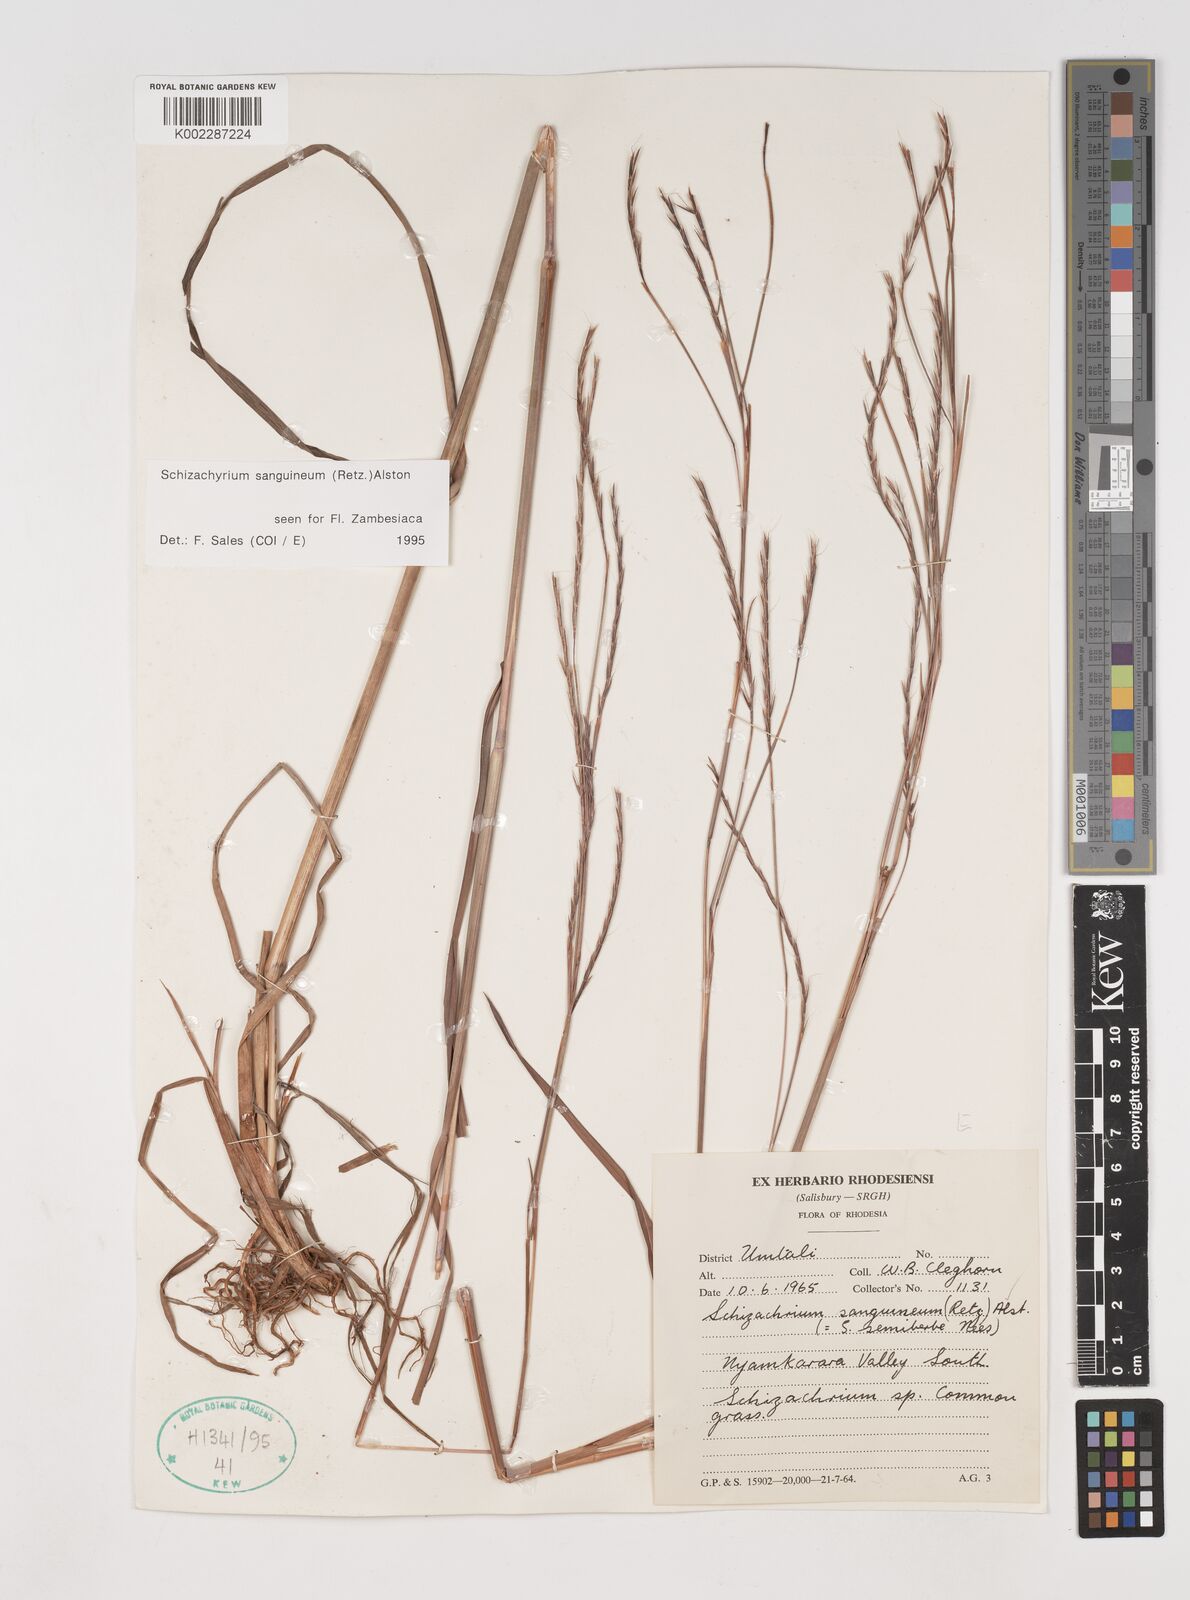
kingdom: Plantae
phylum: Tracheophyta
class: Liliopsida
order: Poales
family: Poaceae
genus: Schizachyrium
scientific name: Schizachyrium sanguineum
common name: Crimson bluestem
